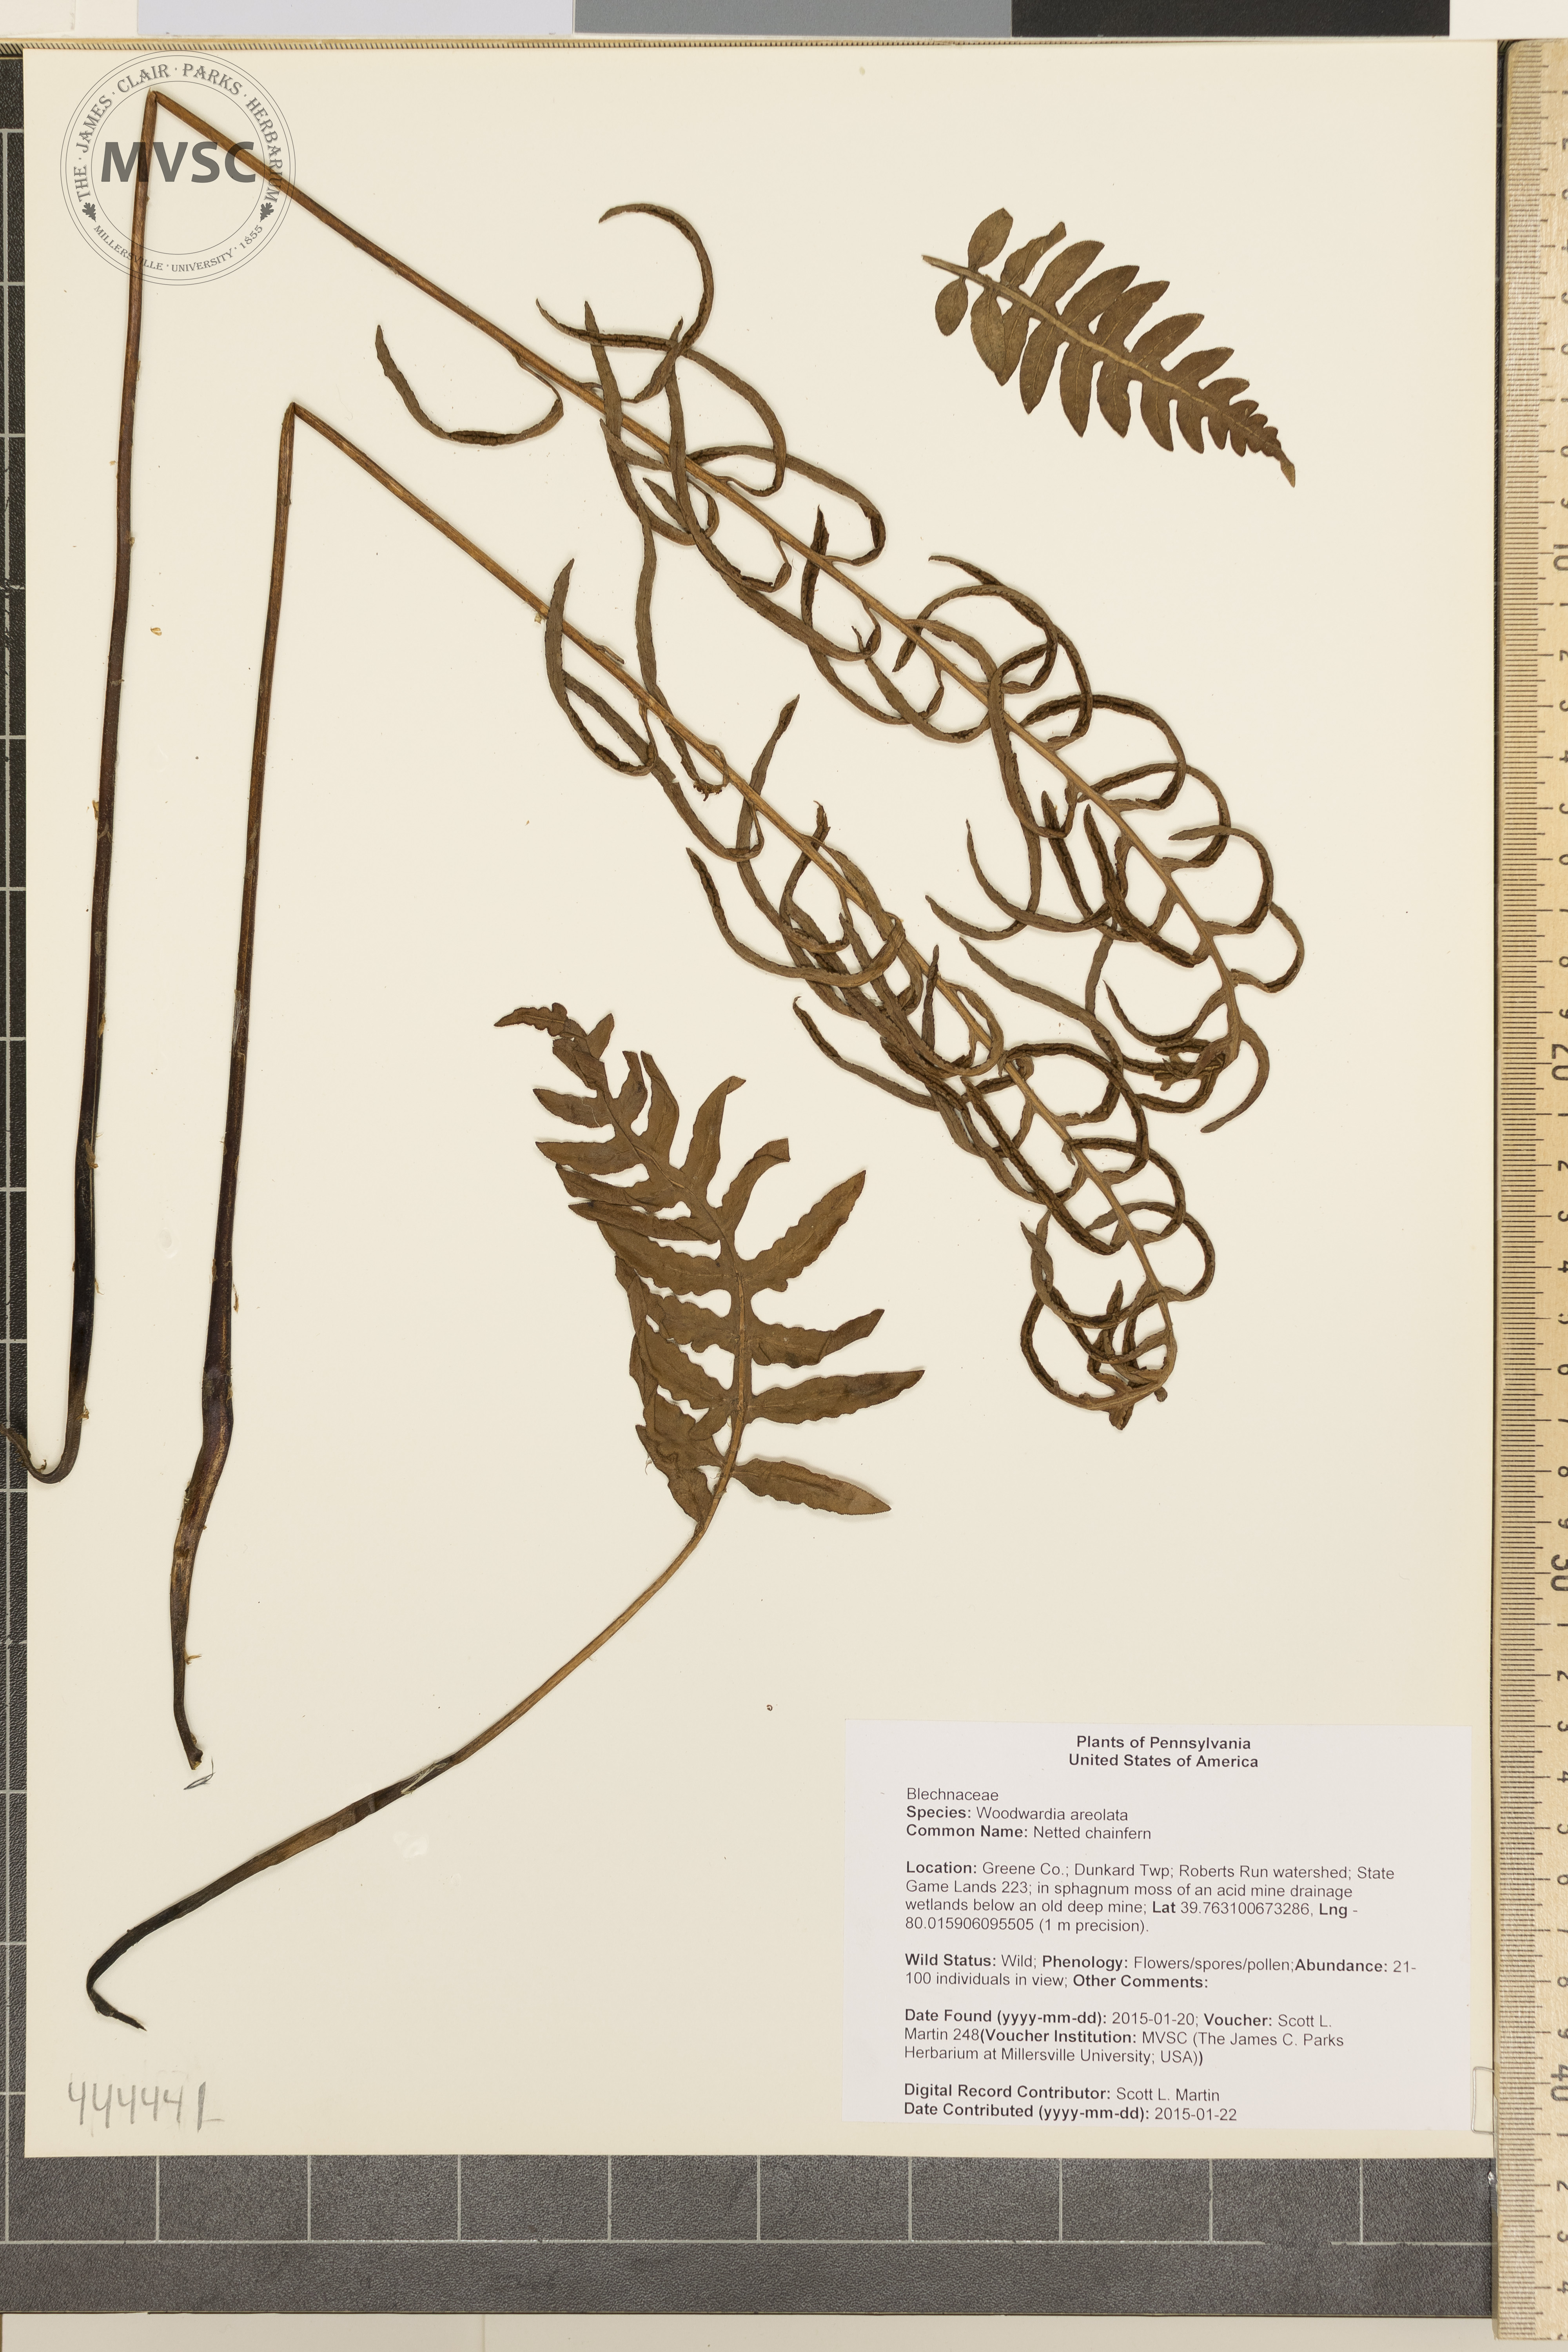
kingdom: Plantae
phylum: Tracheophyta
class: Polypodiopsida
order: Polypodiales
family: Blechnaceae
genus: Lorinseria
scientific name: Lorinseria areolata
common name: Netted chainfern
